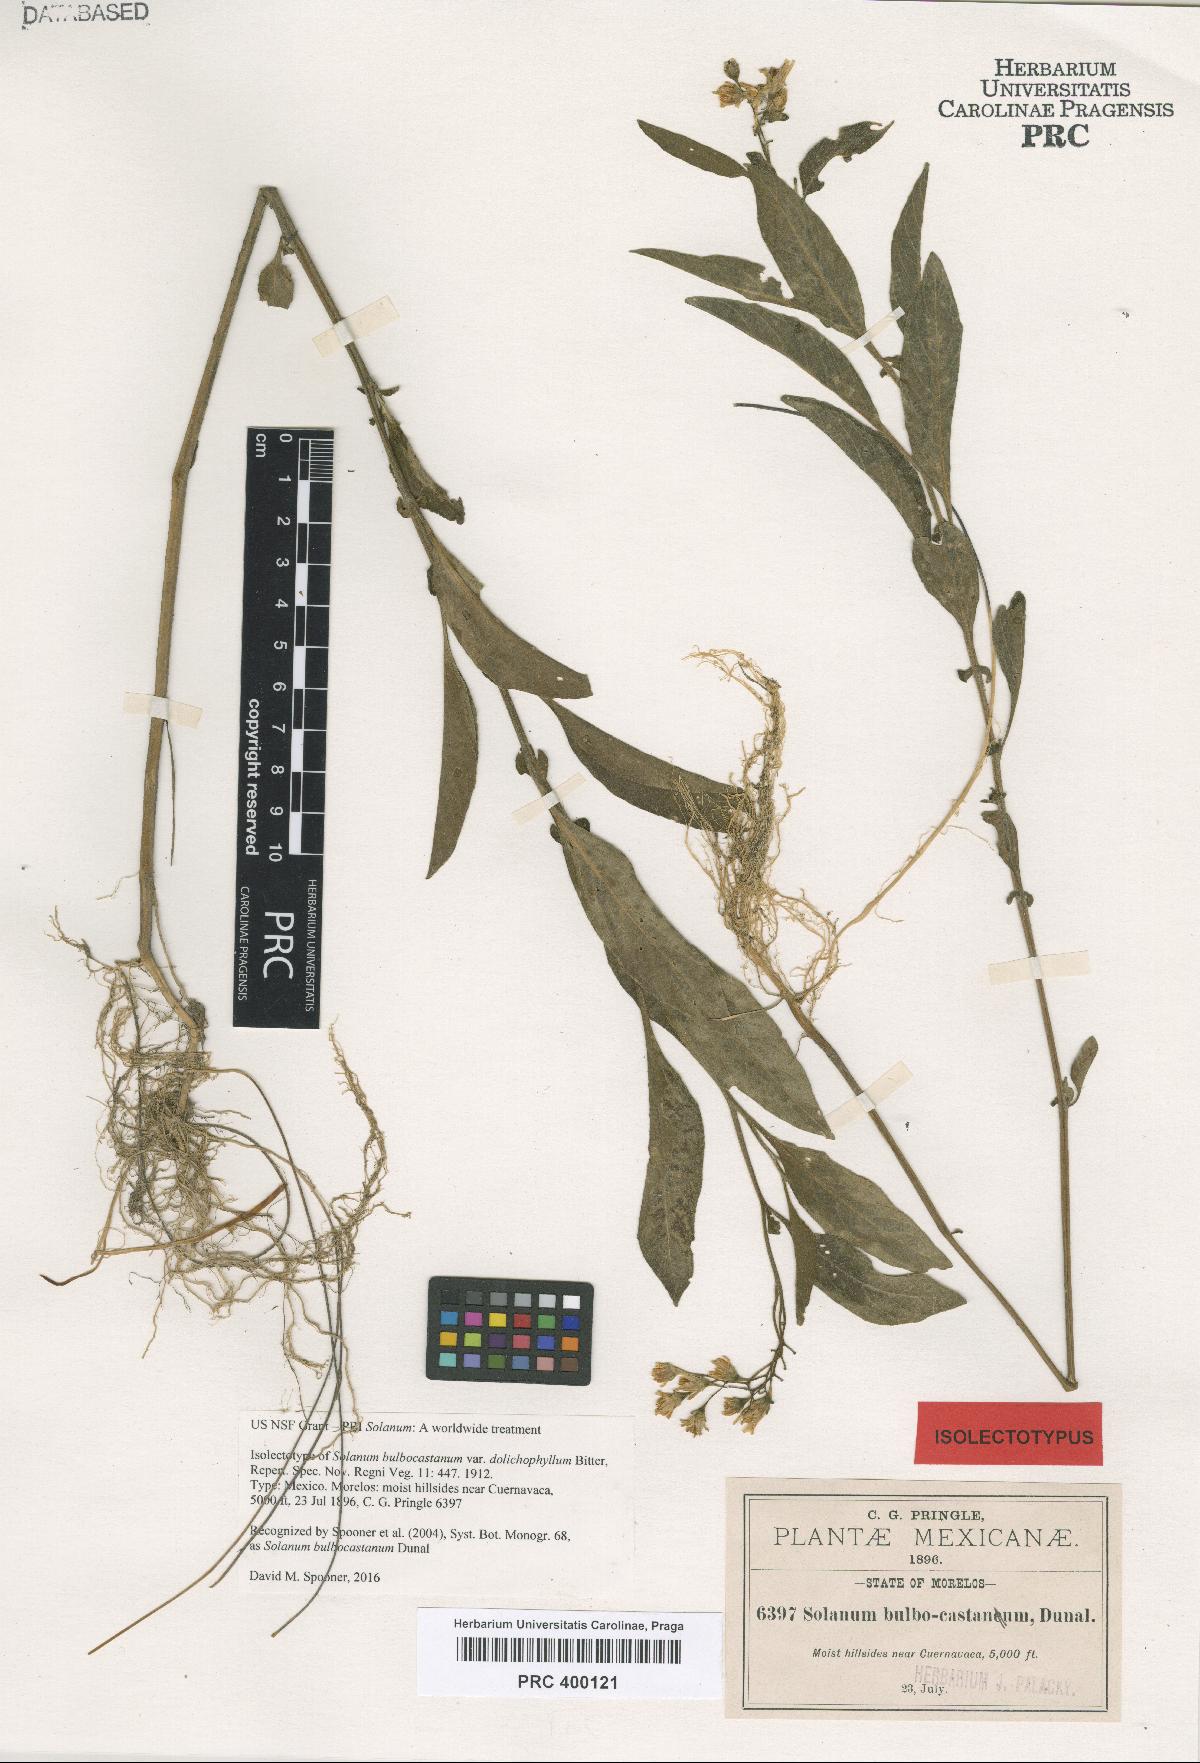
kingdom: Plantae
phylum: Tracheophyta
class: Magnoliopsida
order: Solanales
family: Solanaceae
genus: Solanum
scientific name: Solanum bulbocastanum
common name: Ornamental nightshade
